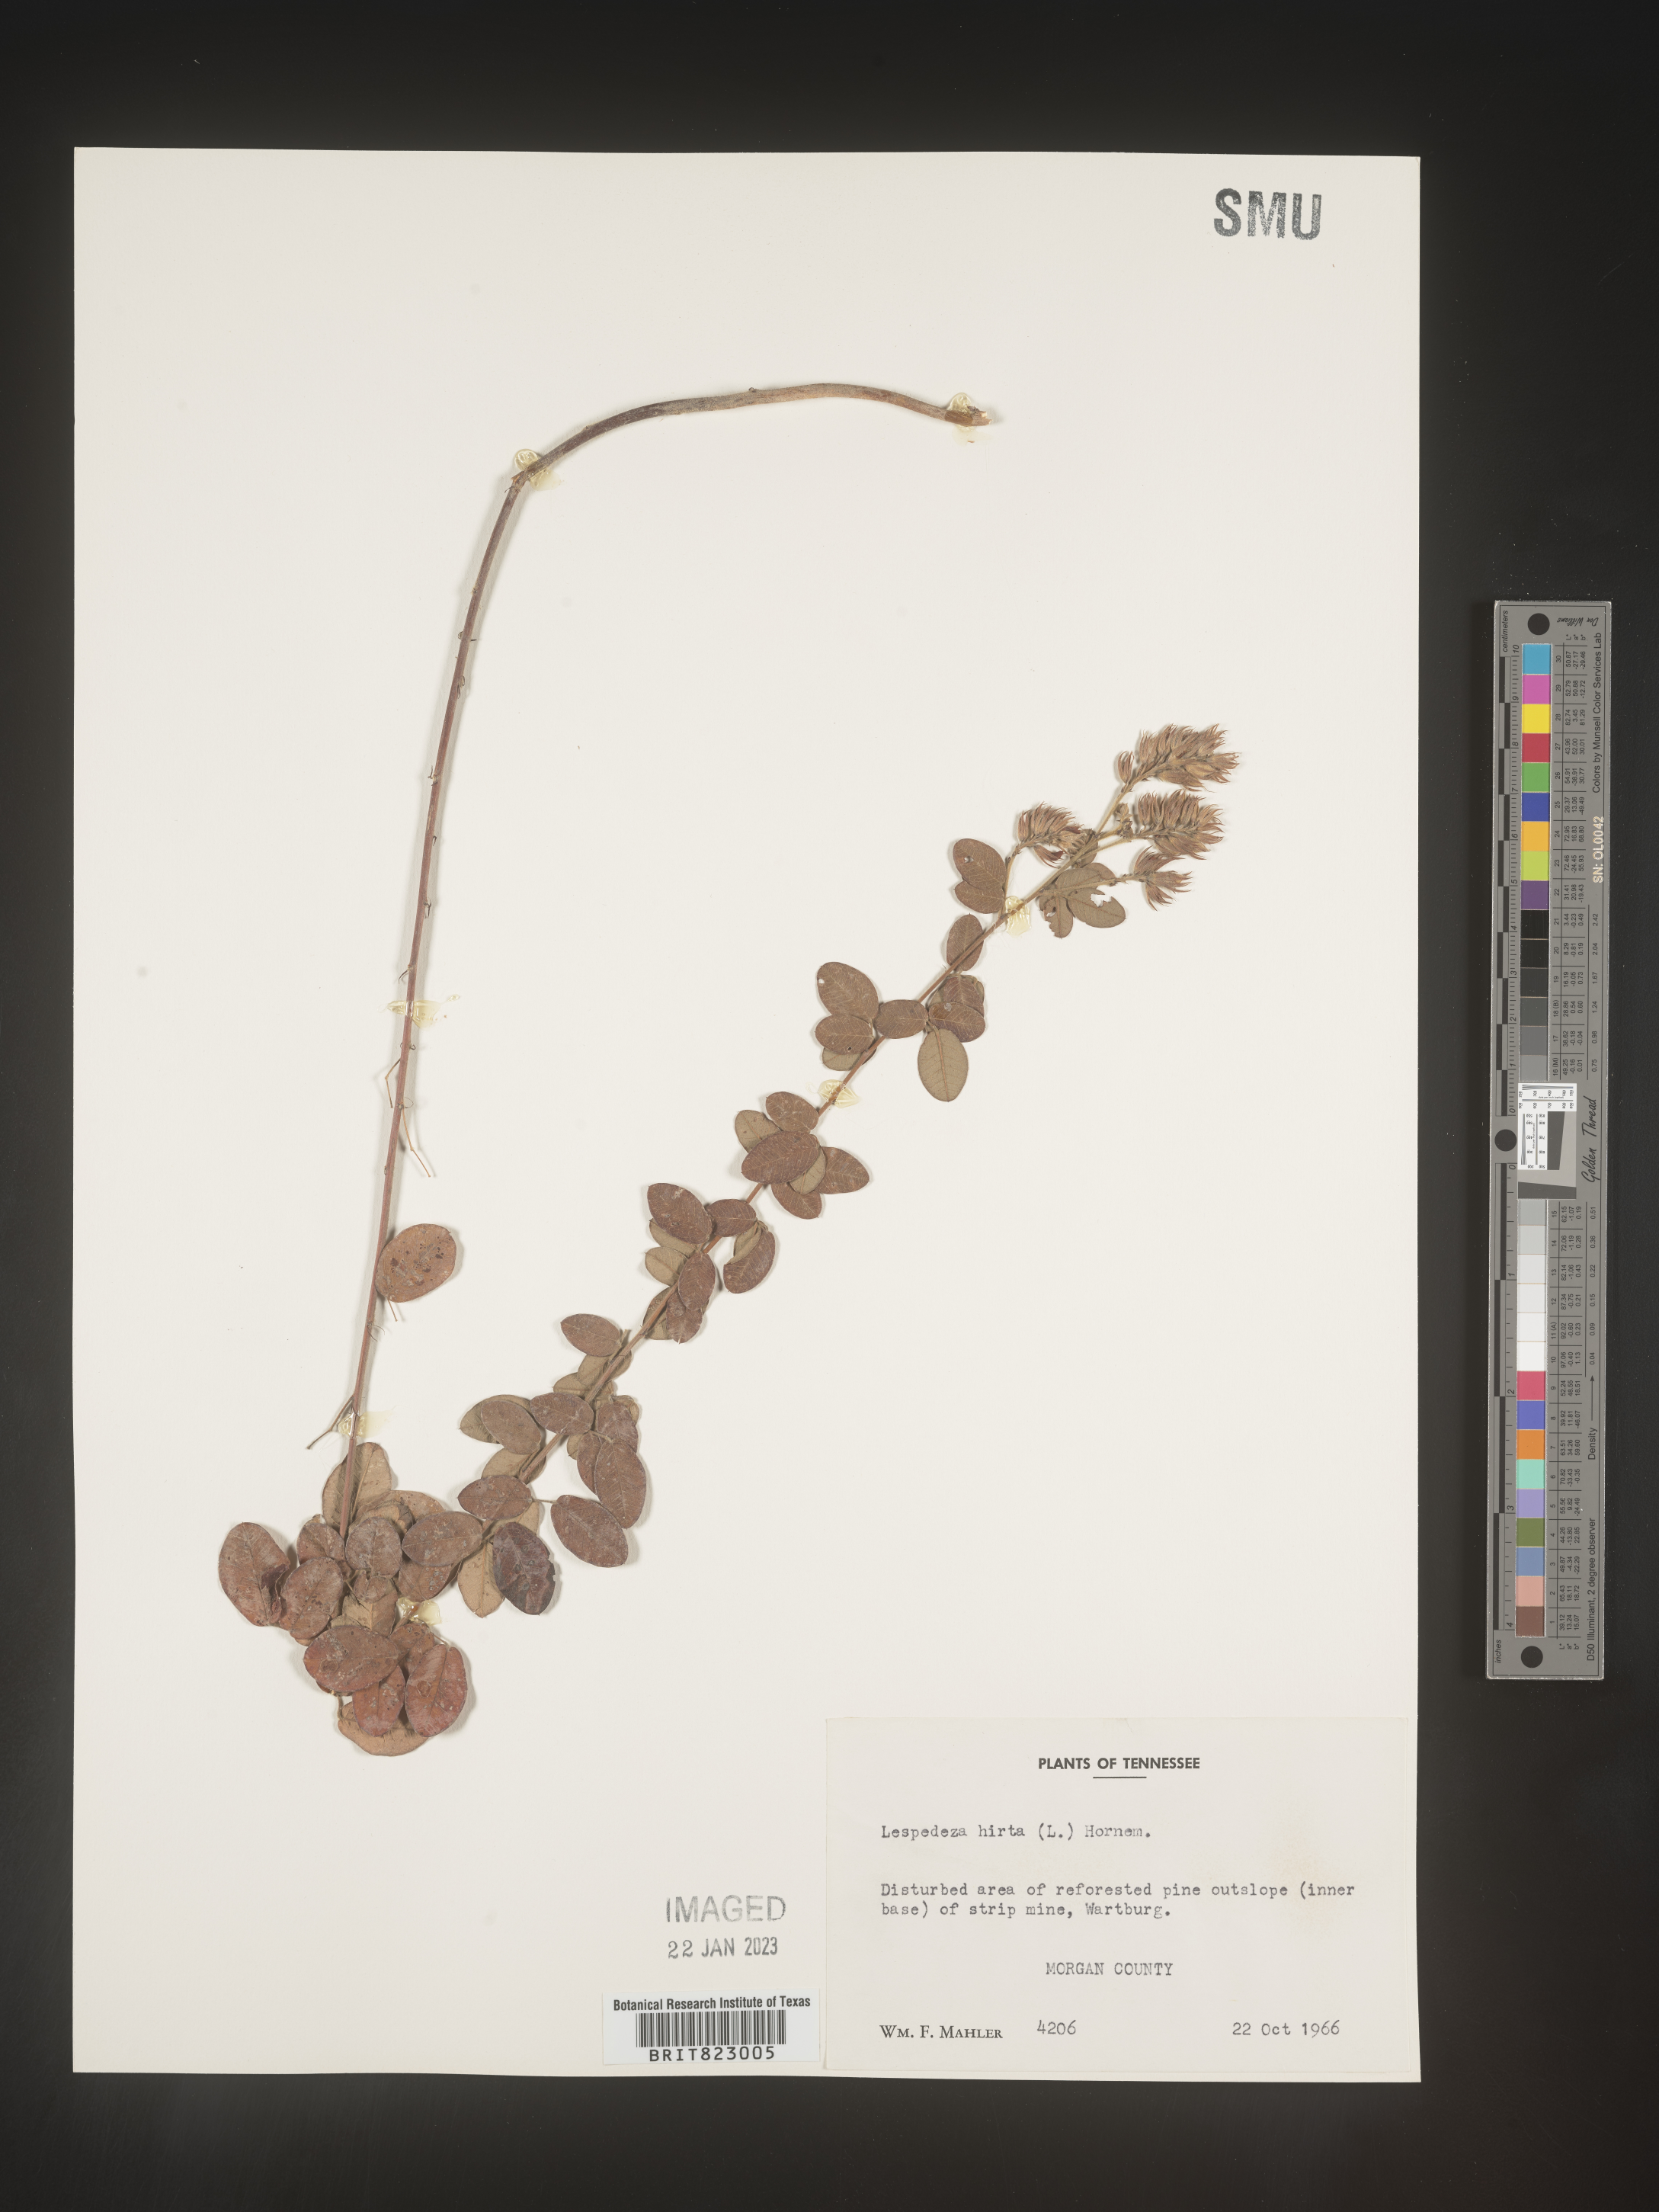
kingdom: Plantae
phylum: Tracheophyta
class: Magnoliopsida
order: Fabales
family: Fabaceae
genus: Lespedeza
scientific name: Lespedeza hirta
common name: Hairy lespedeza
